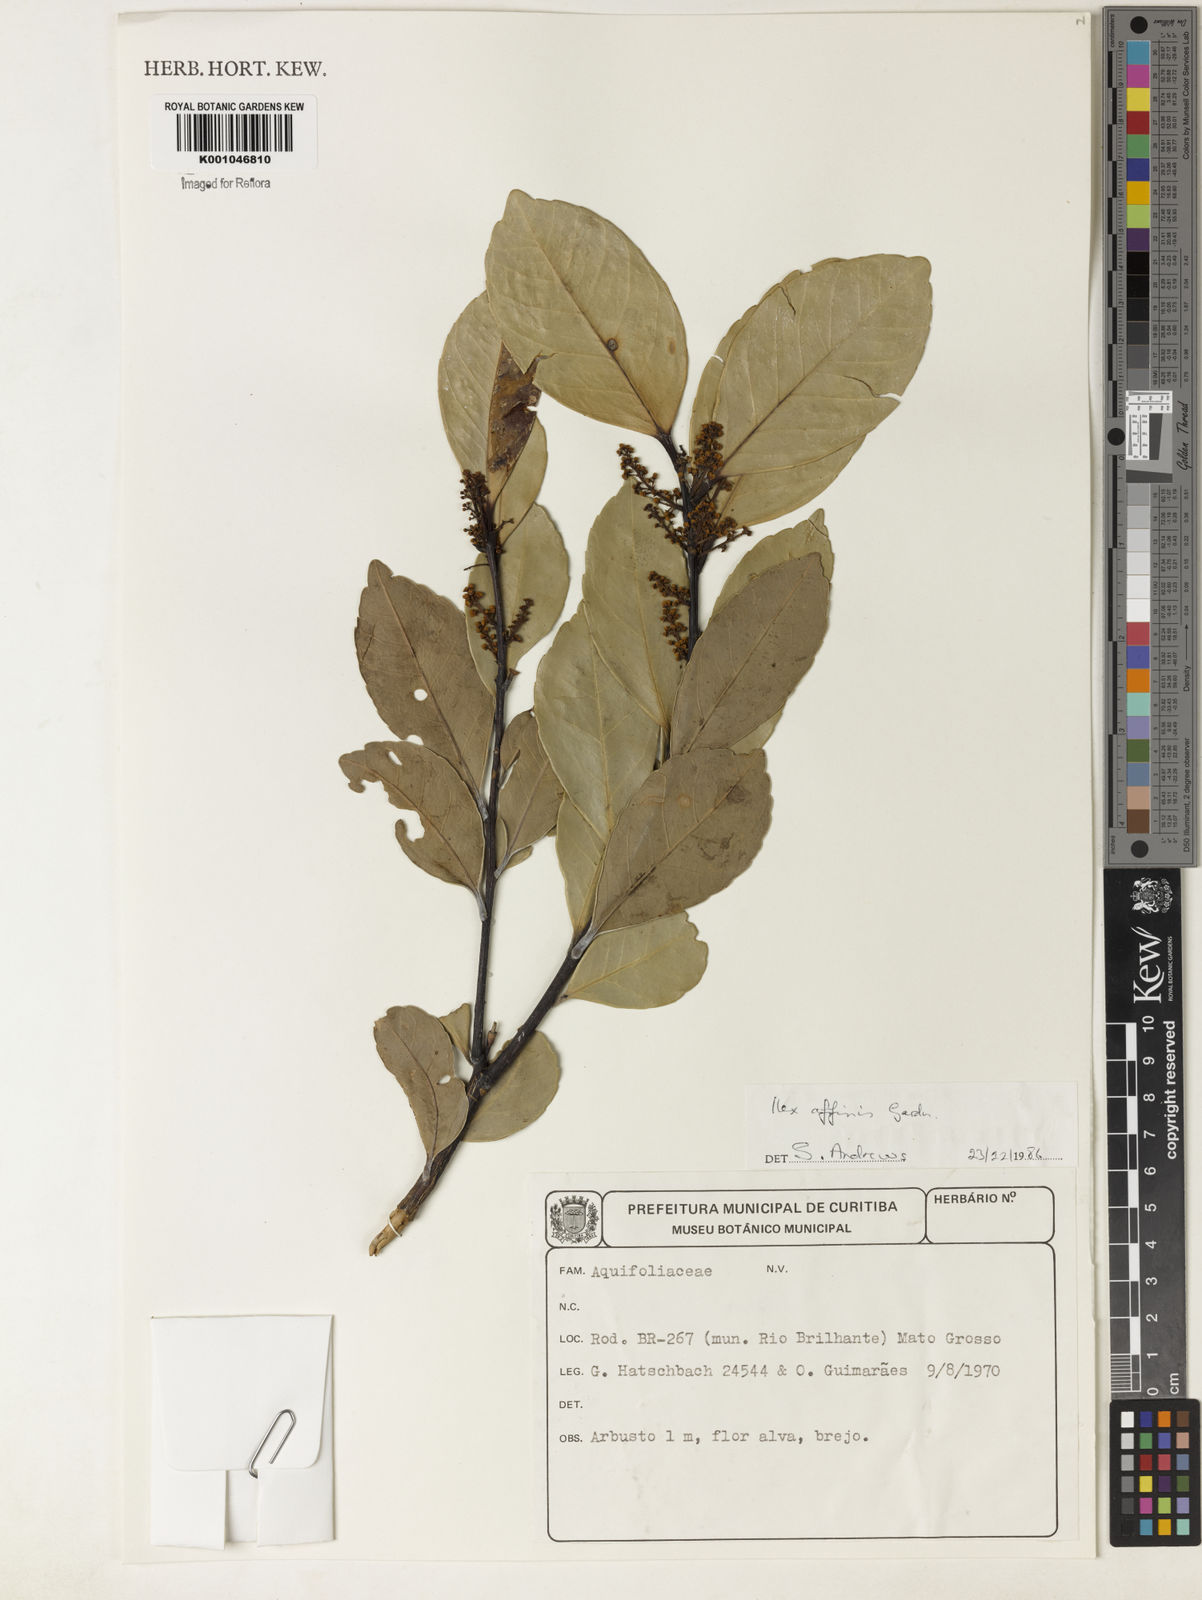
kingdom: Plantae
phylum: Tracheophyta
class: Magnoliopsida
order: Aquifoliales
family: Aquifoliaceae
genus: Ilex
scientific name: Ilex affinis
